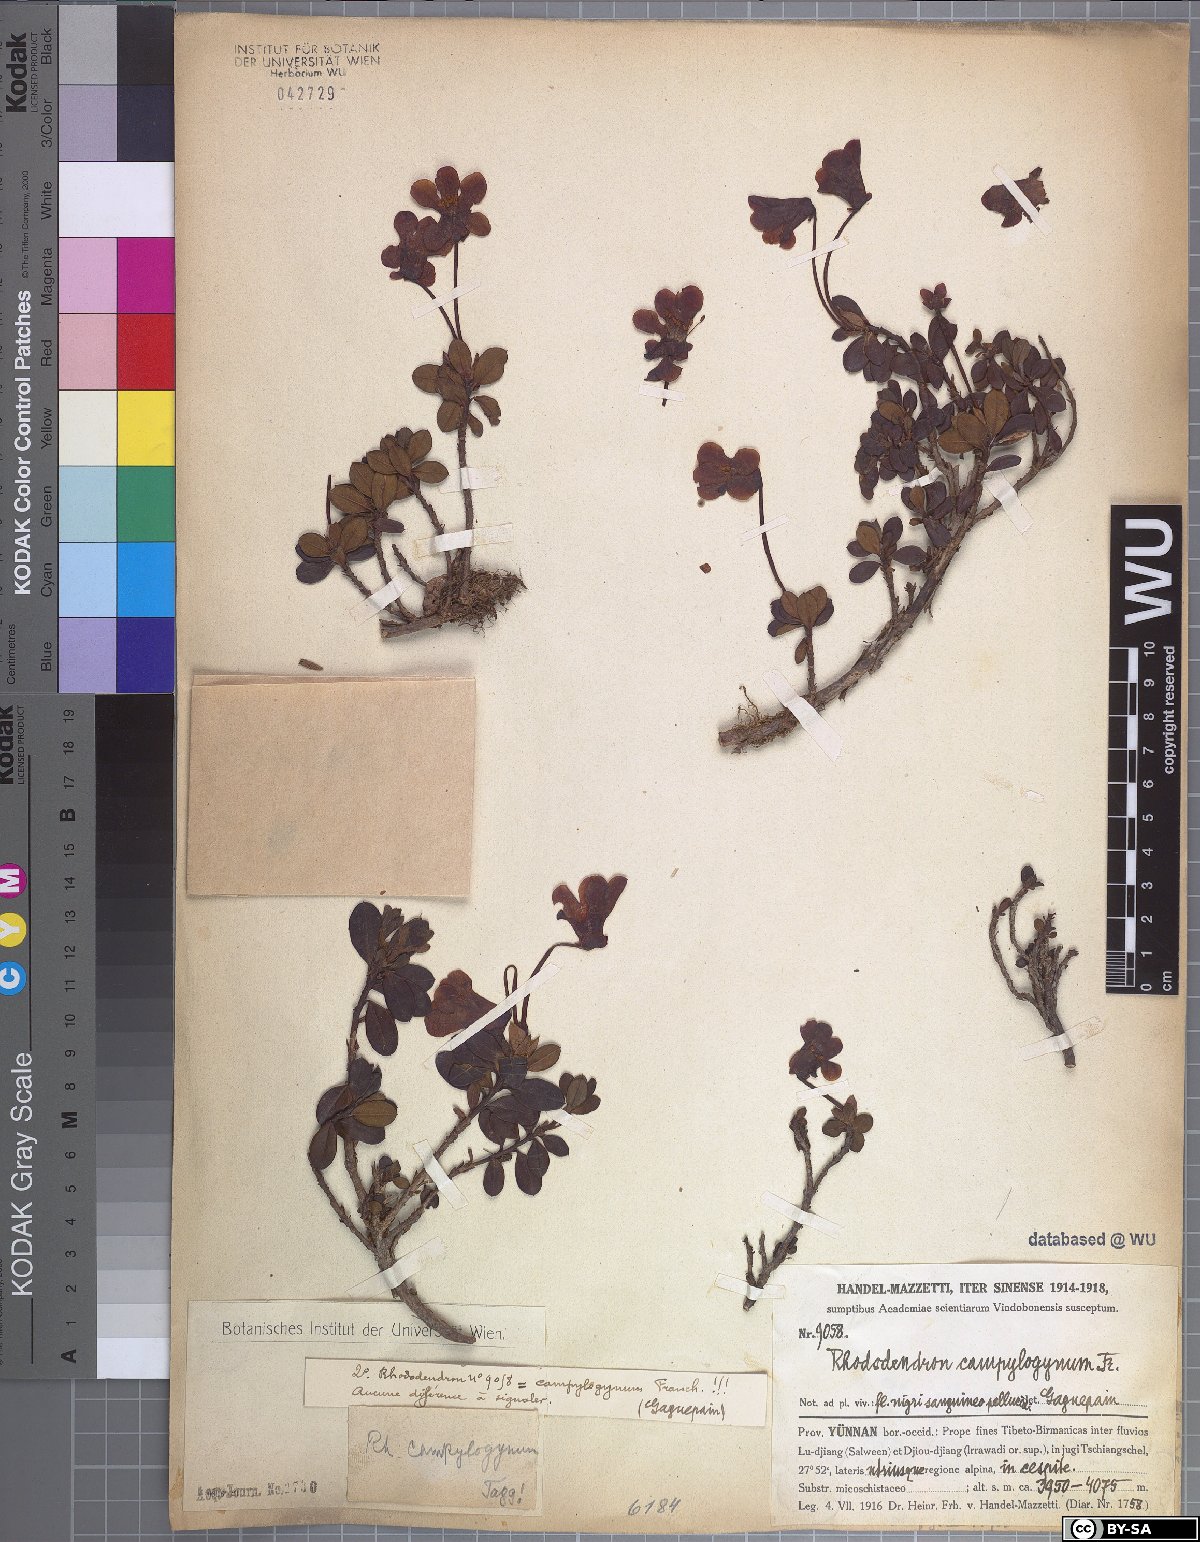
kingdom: Plantae
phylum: Tracheophyta
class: Magnoliopsida
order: Ericales
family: Ericaceae
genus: Rhododendron
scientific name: Rhododendron campylogynum
